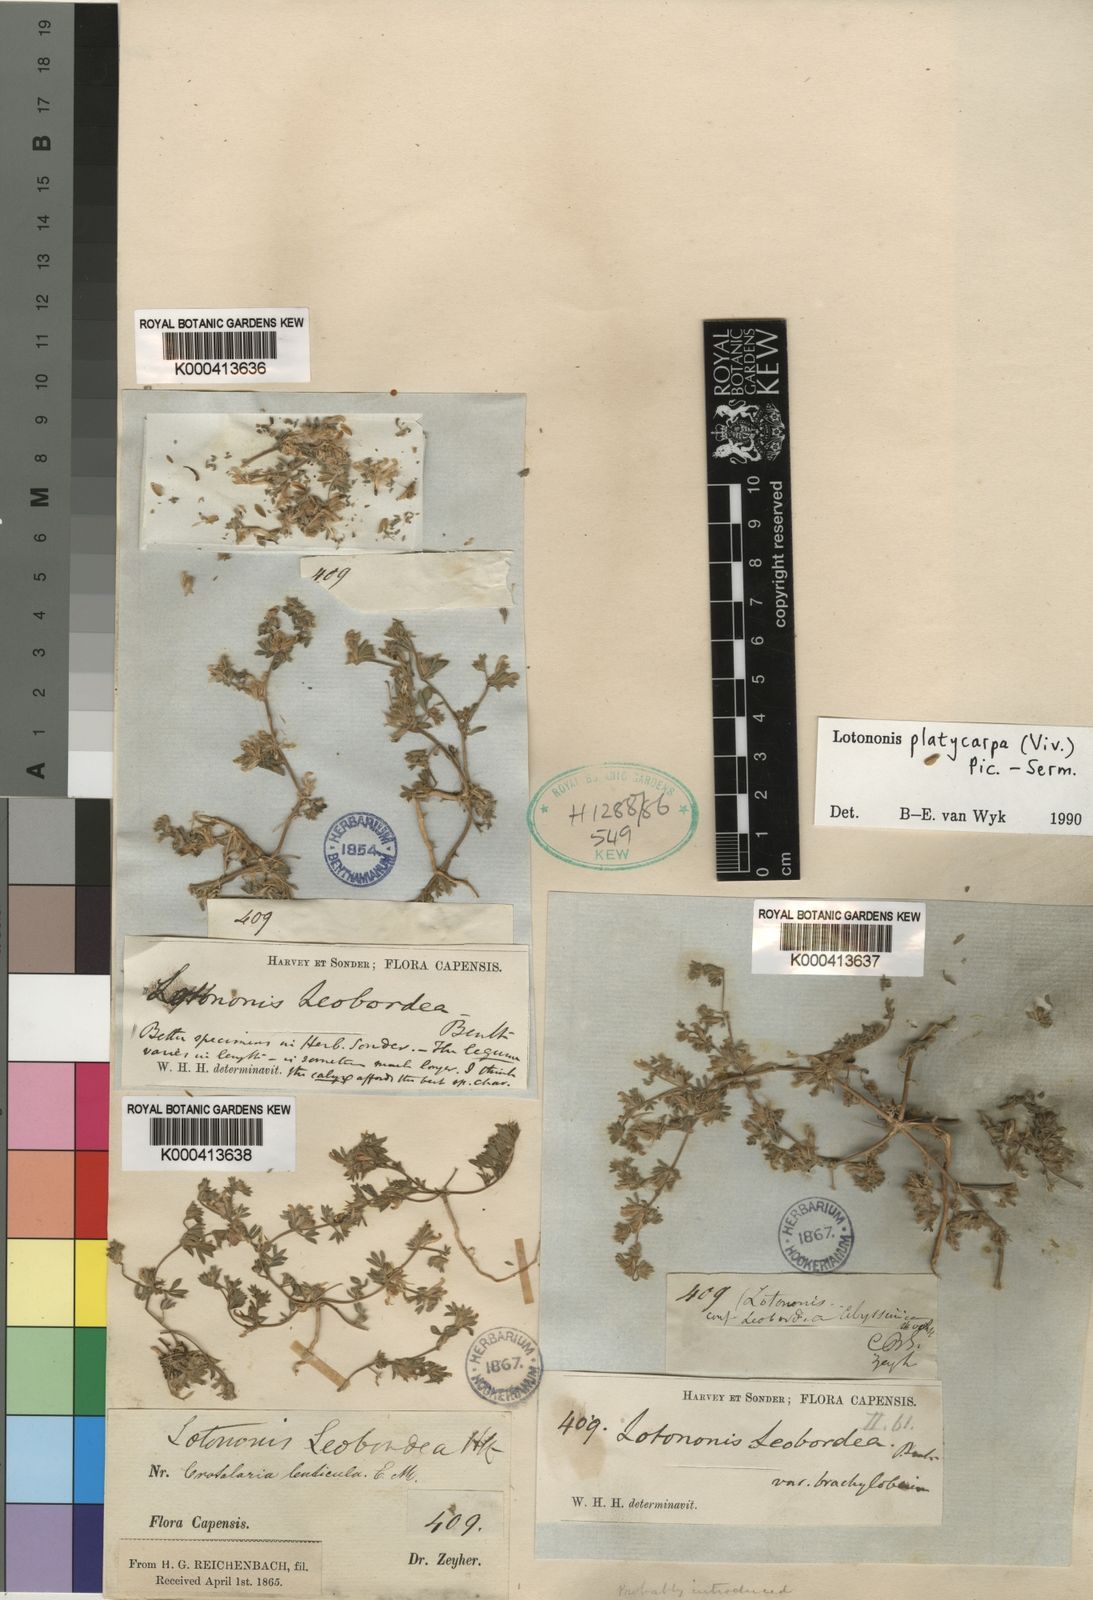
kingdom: Plantae
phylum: Tracheophyta
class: Magnoliopsida
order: Fabales
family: Fabaceae
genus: Leobordea
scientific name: Leobordea platycarpa
